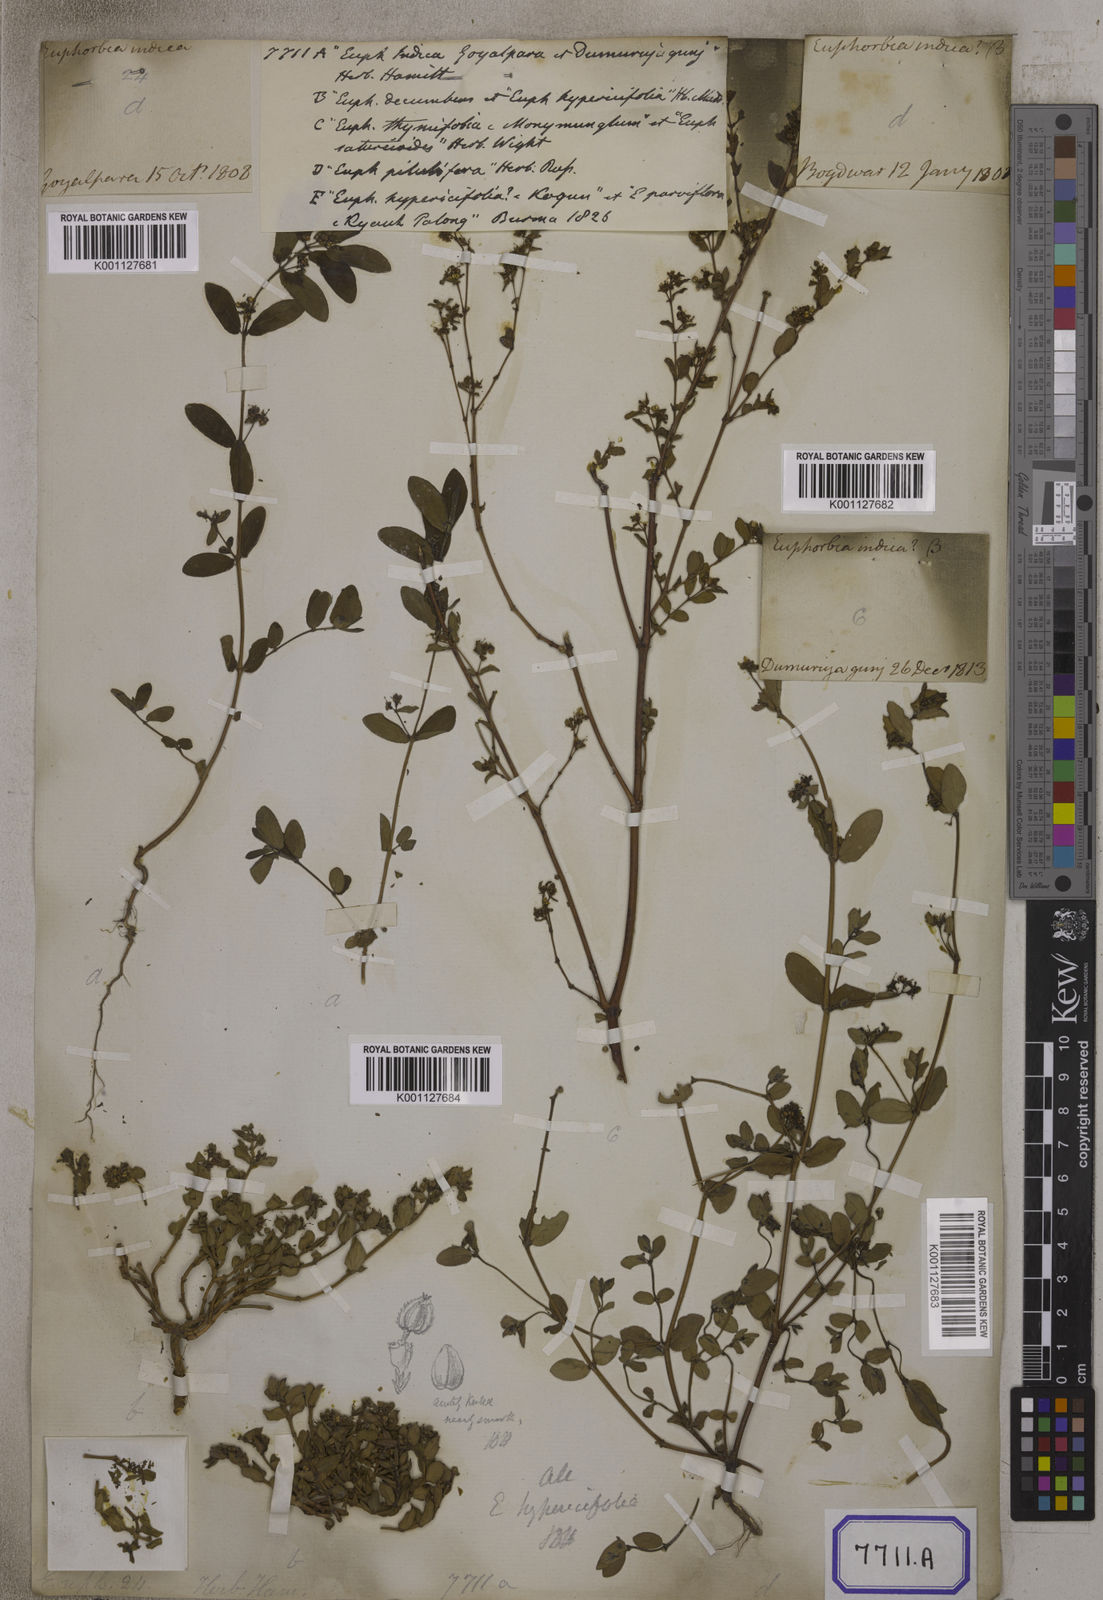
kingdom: Plantae
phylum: Tracheophyta
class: Magnoliopsida
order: Malpighiales
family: Euphorbiaceae
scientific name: Euphorbiaceae
